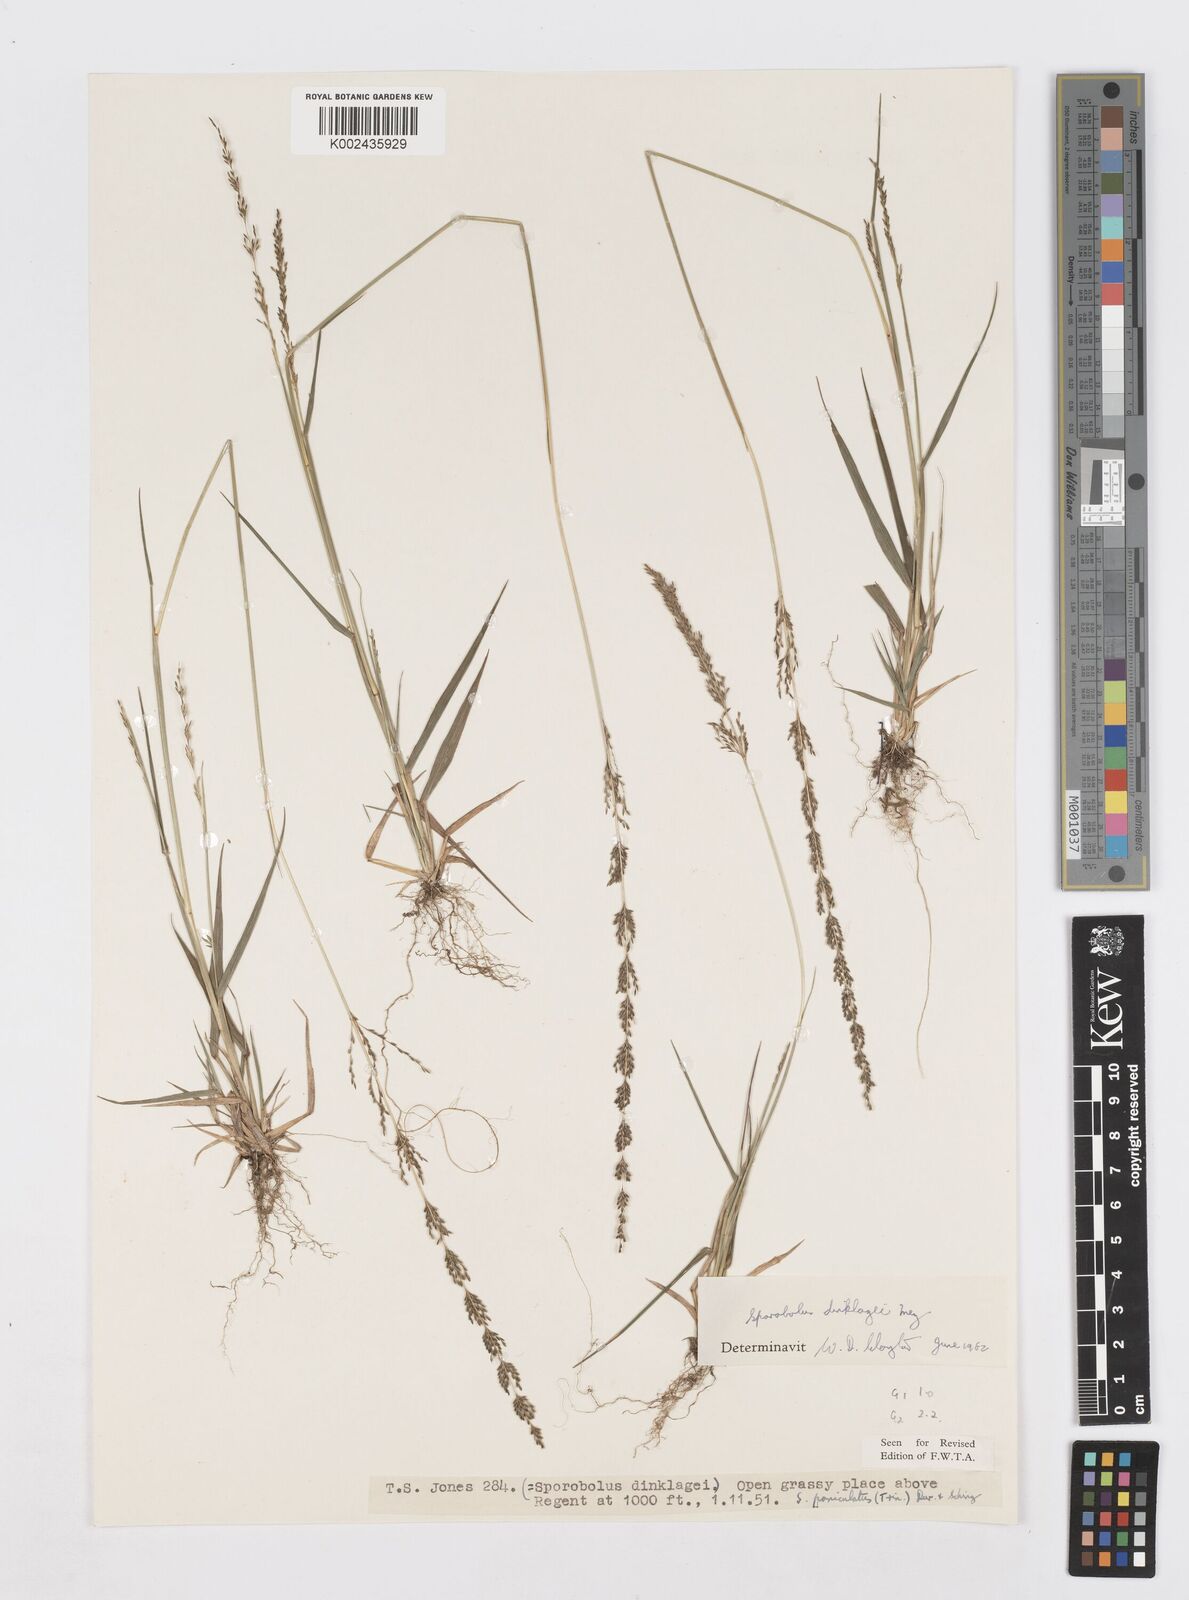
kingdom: Plantae
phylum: Tracheophyta
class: Liliopsida
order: Poales
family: Poaceae
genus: Sporobolus
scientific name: Sporobolus dinklagei
